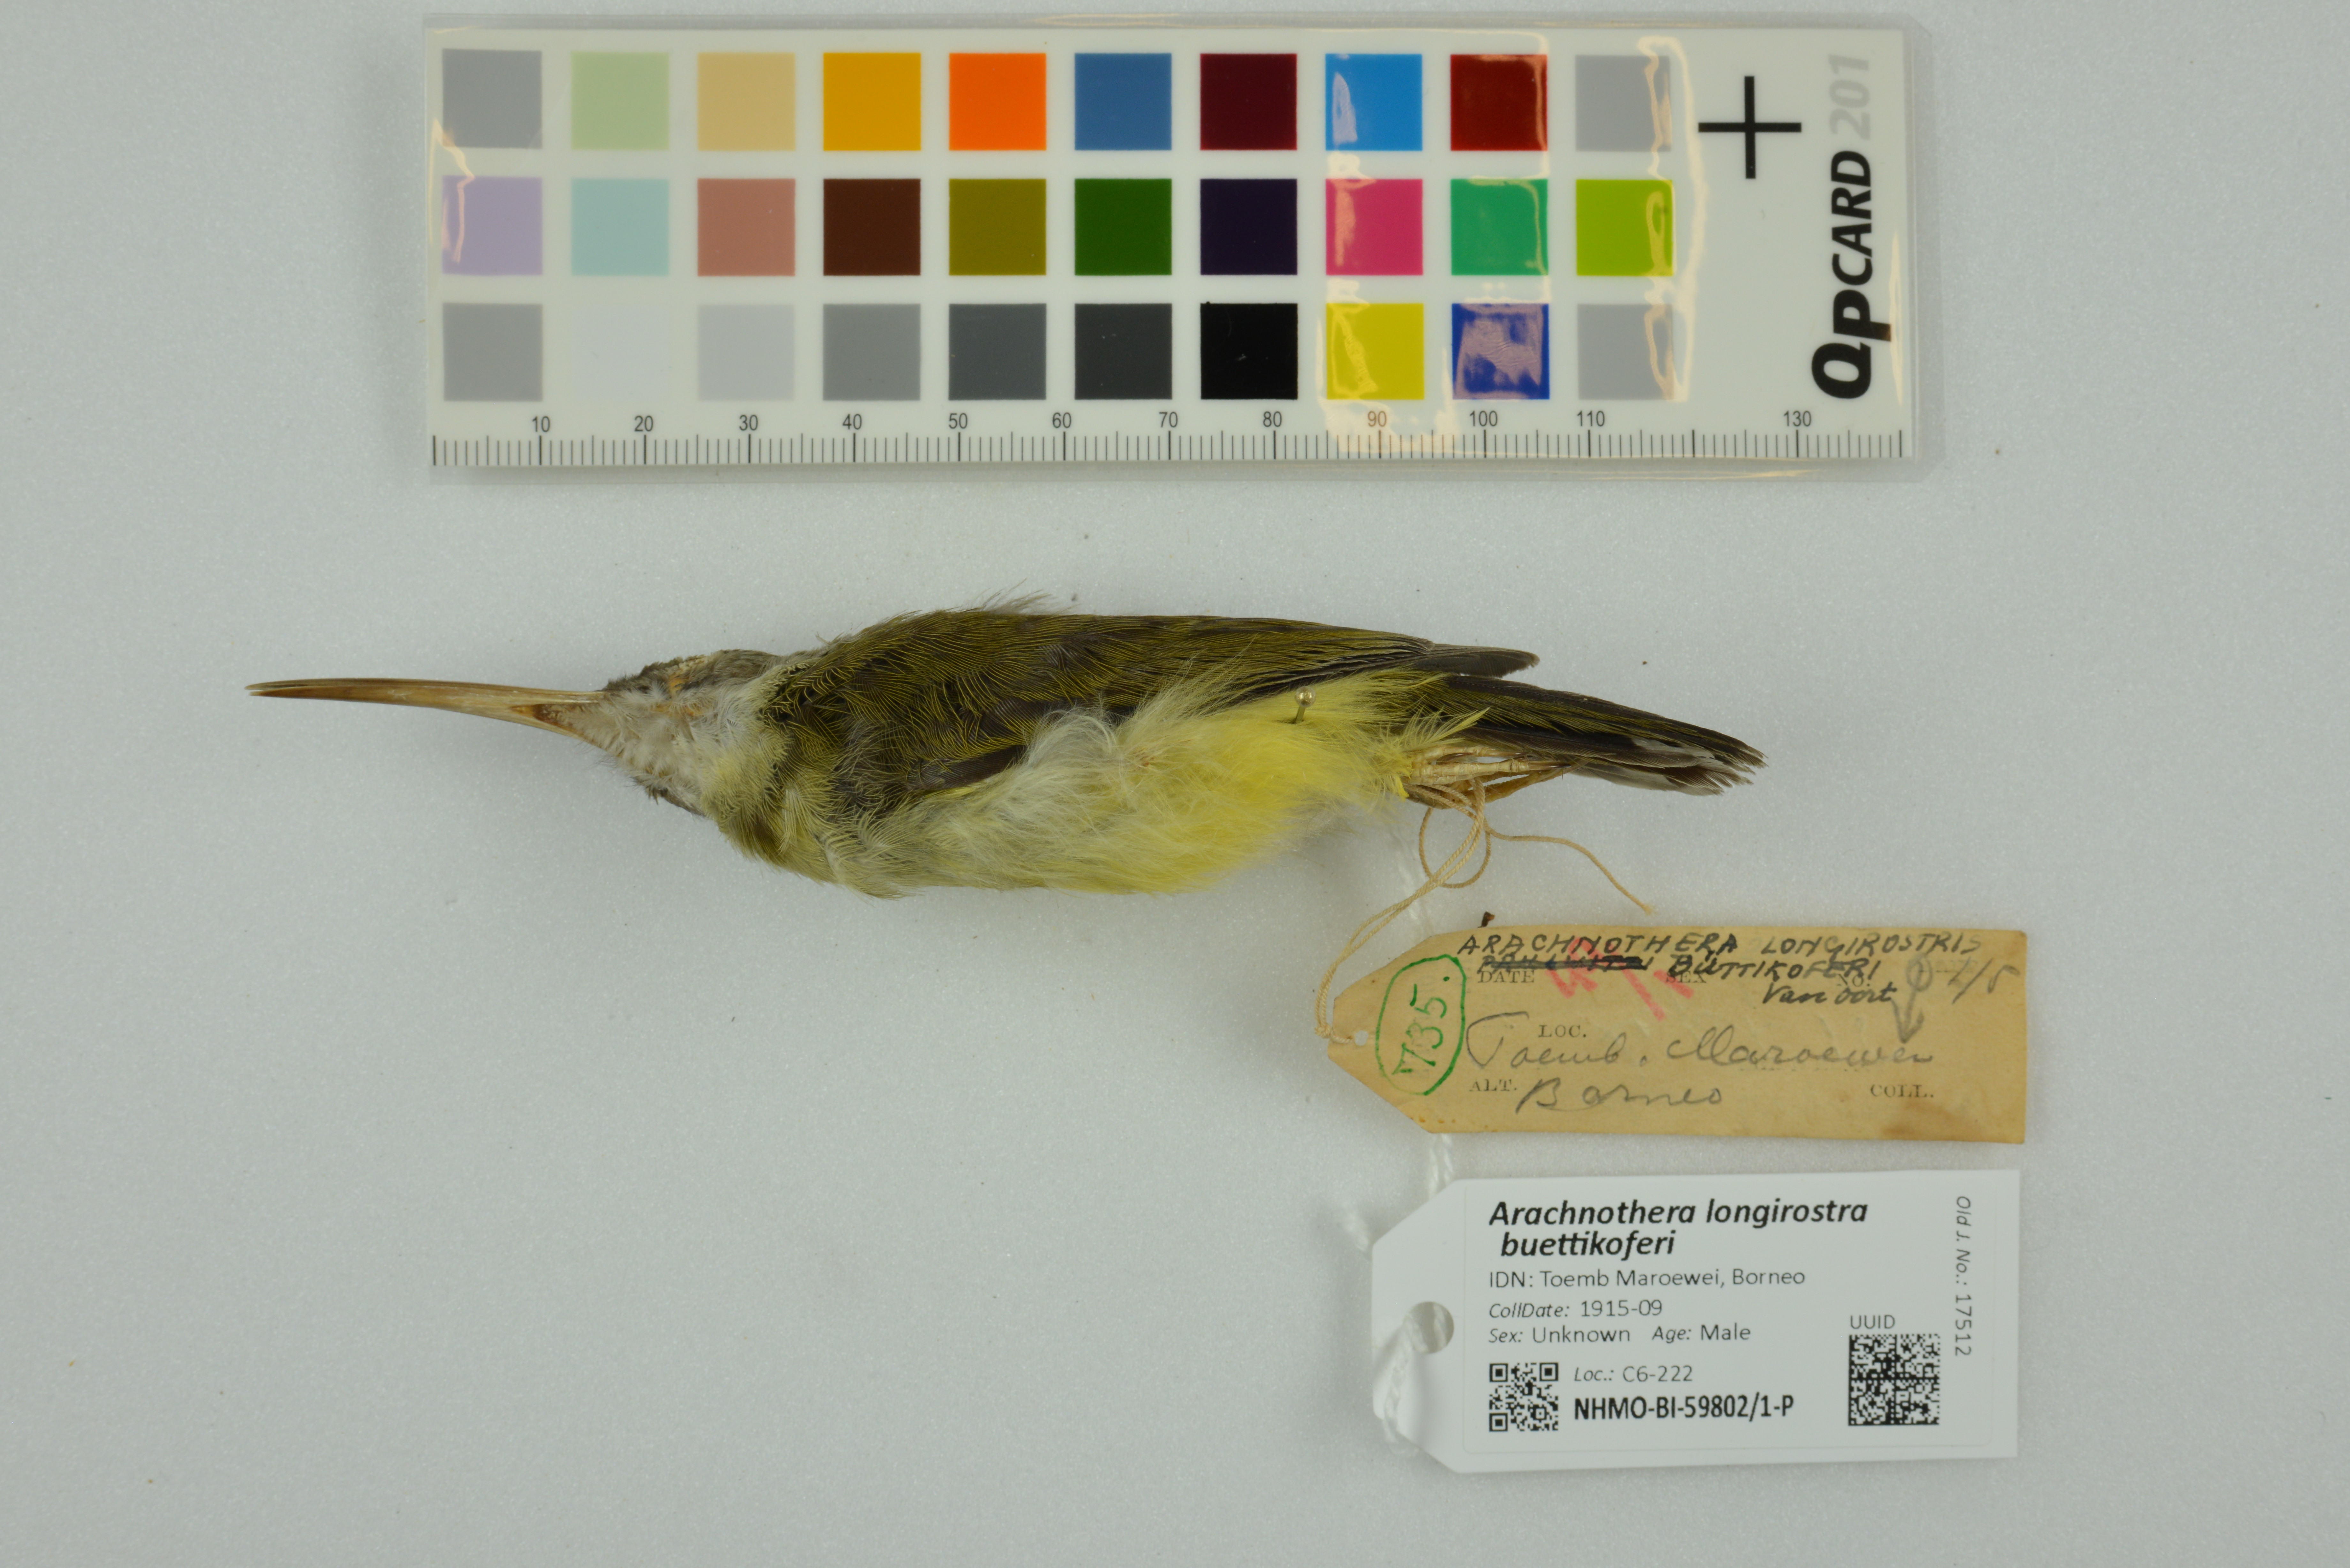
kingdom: Animalia
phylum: Chordata
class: Aves
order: Passeriformes
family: Nectariniidae
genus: Arachnothera
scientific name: Arachnothera longirostra
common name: Little spiderhunter
